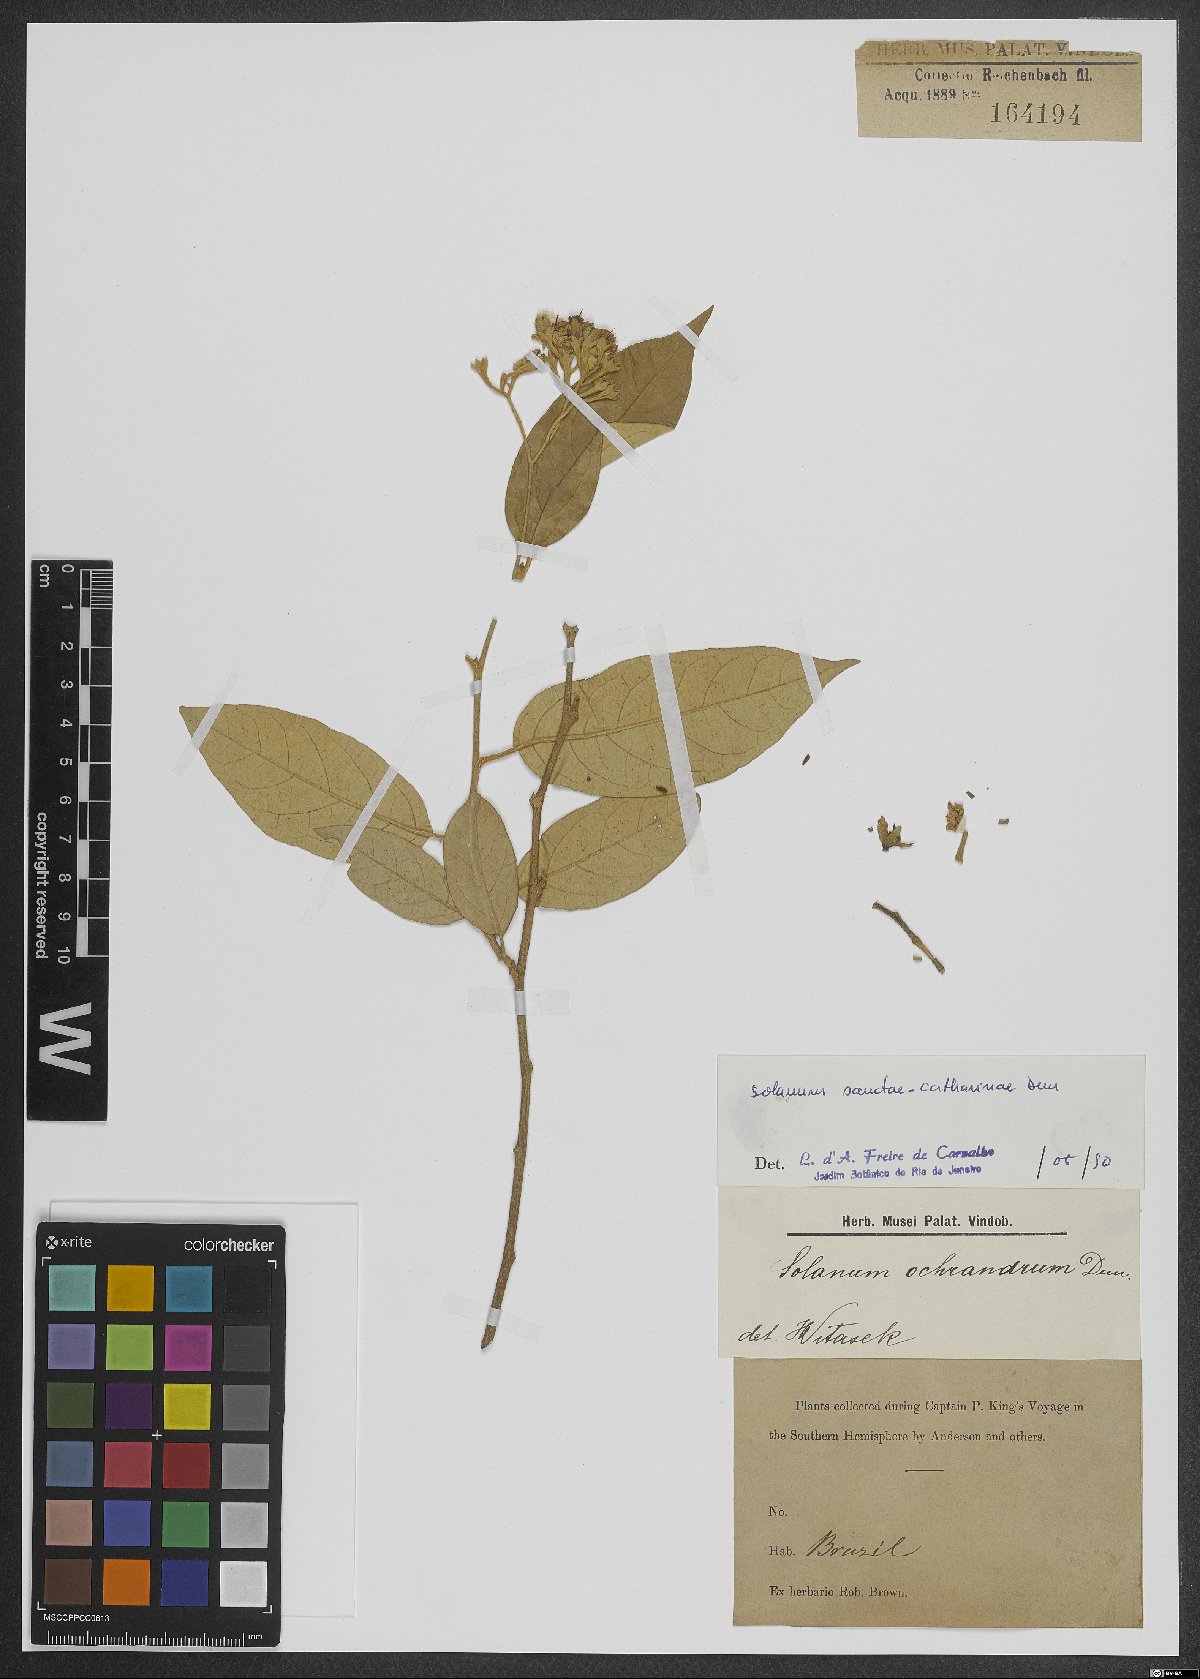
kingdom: Plantae
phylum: Tracheophyta
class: Magnoliopsida
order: Solanales
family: Solanaceae
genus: Solanum
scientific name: Solanum sanctae-catharinae
